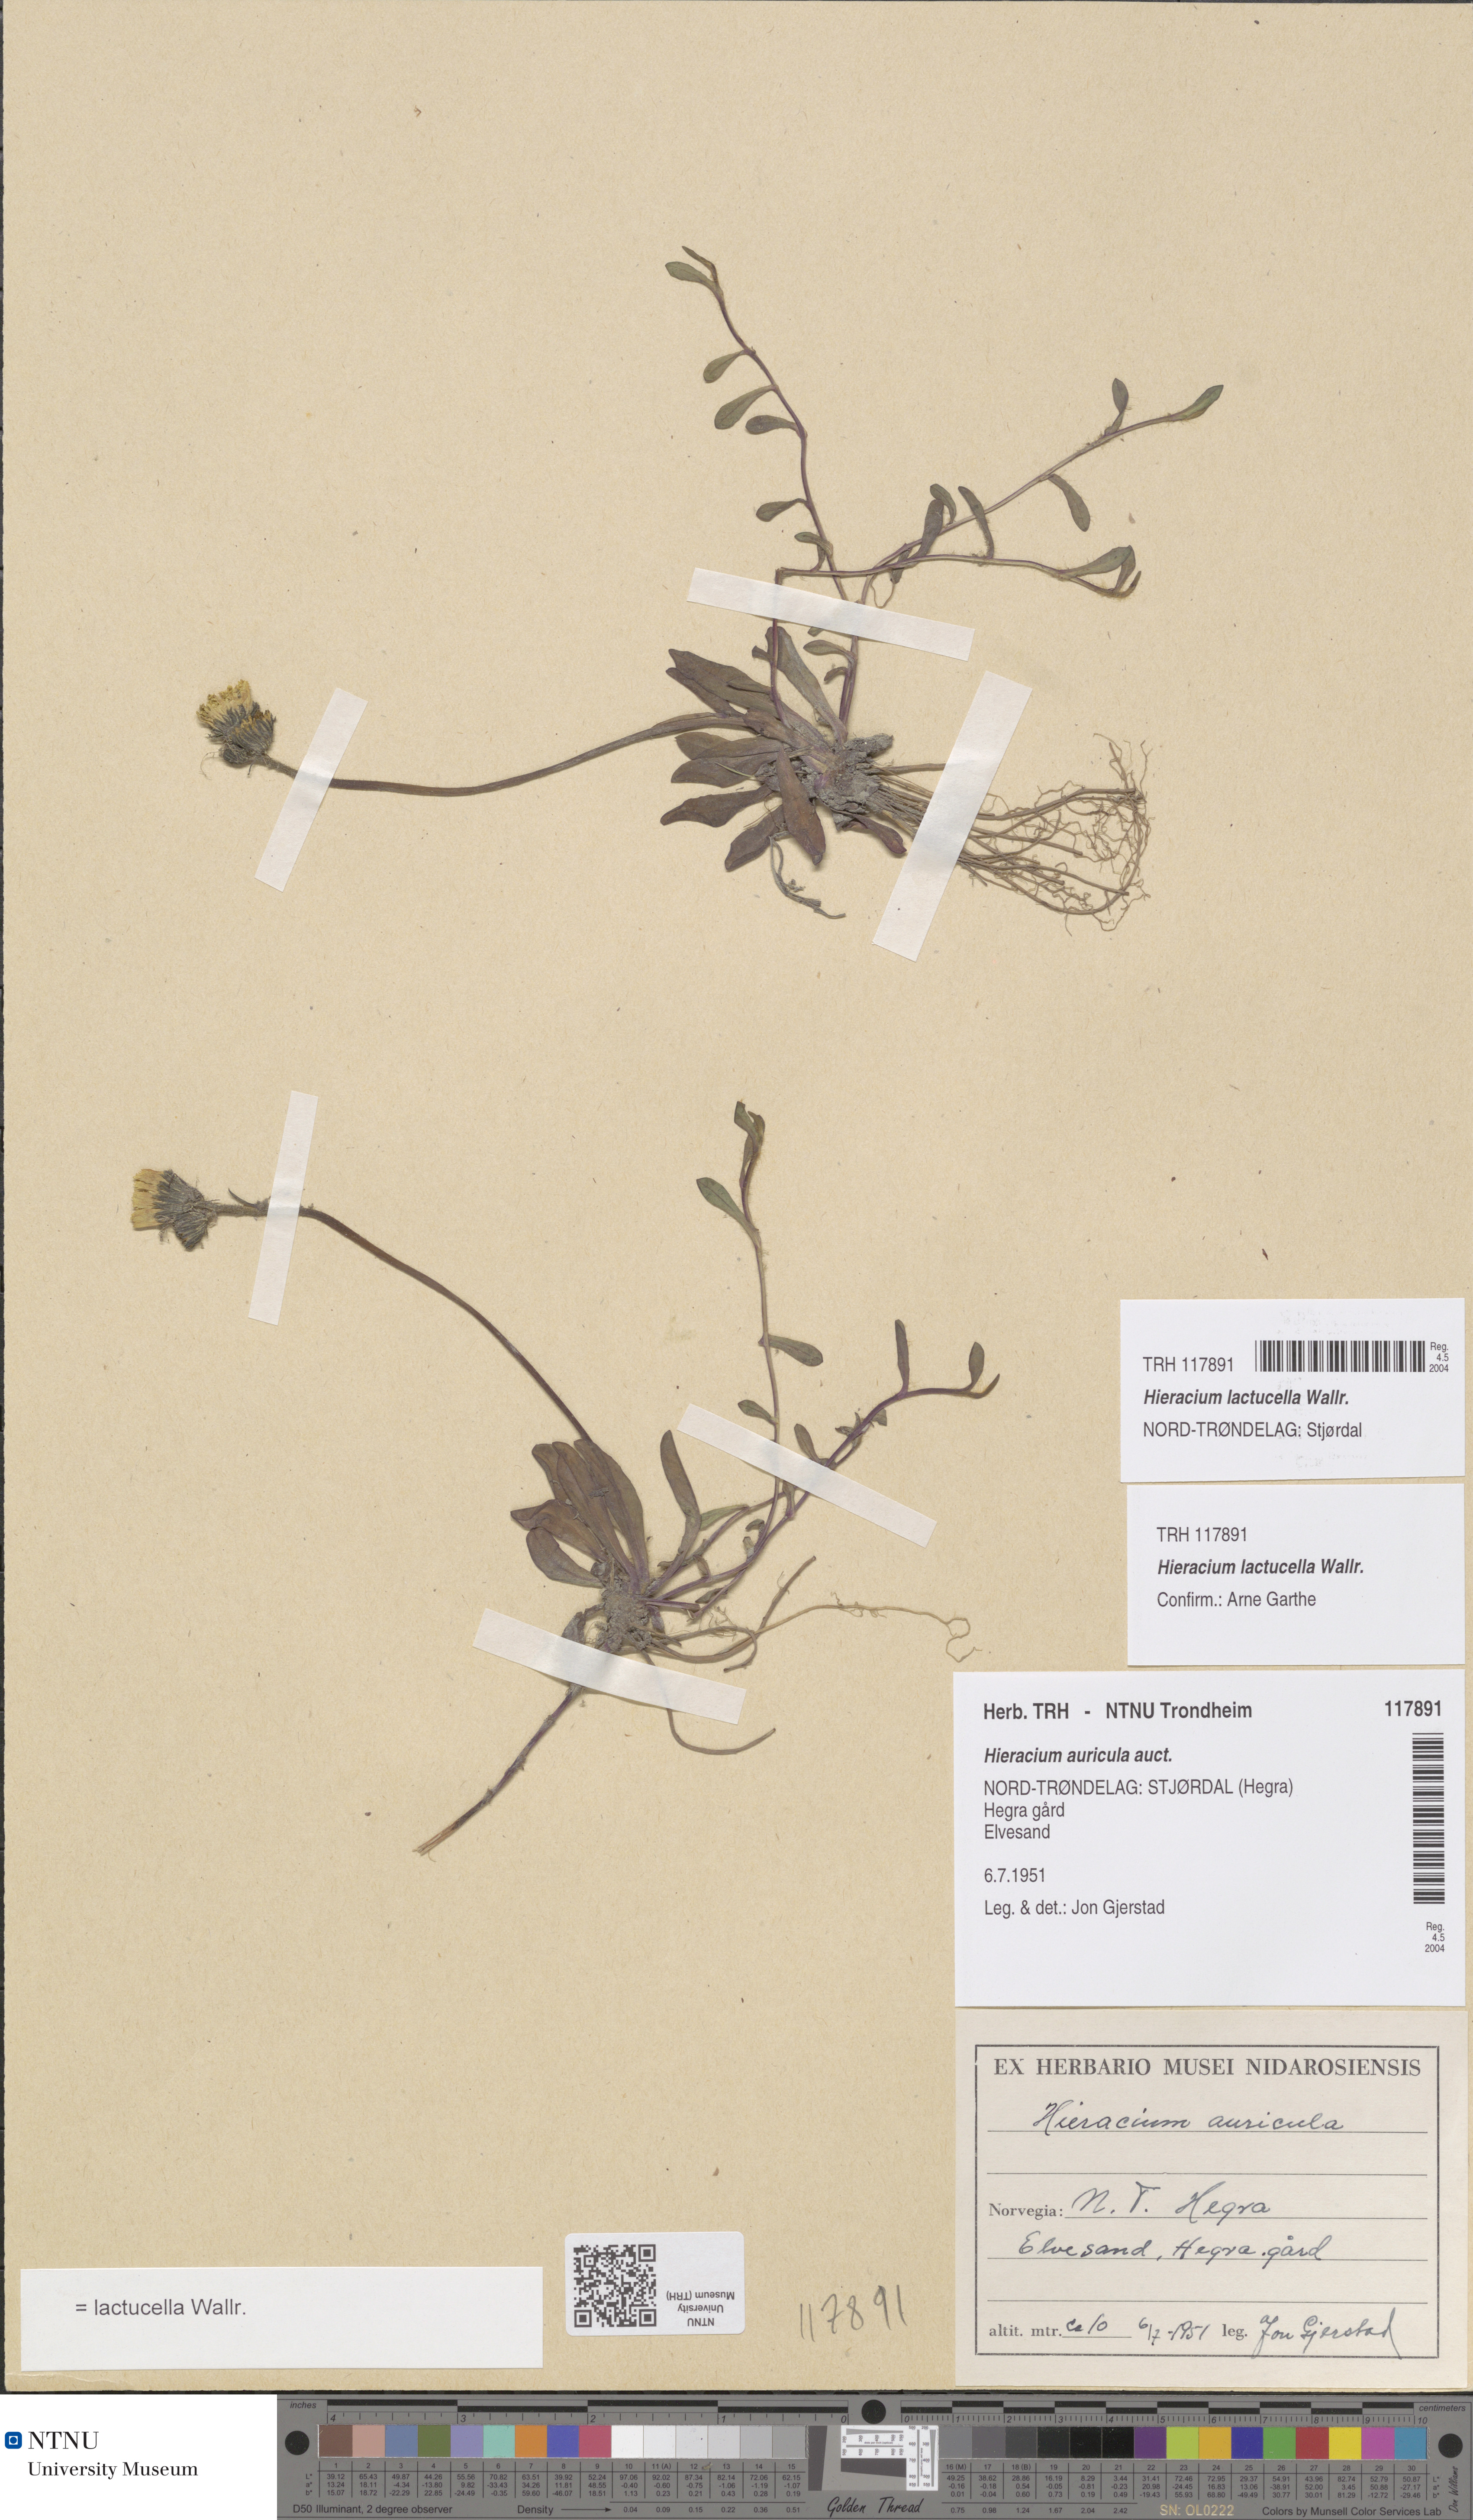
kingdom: Plantae
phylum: Tracheophyta
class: Magnoliopsida
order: Asterales
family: Asteraceae
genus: Pilosella
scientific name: Pilosella lactucella
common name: Glaucous fox-and-cubs
